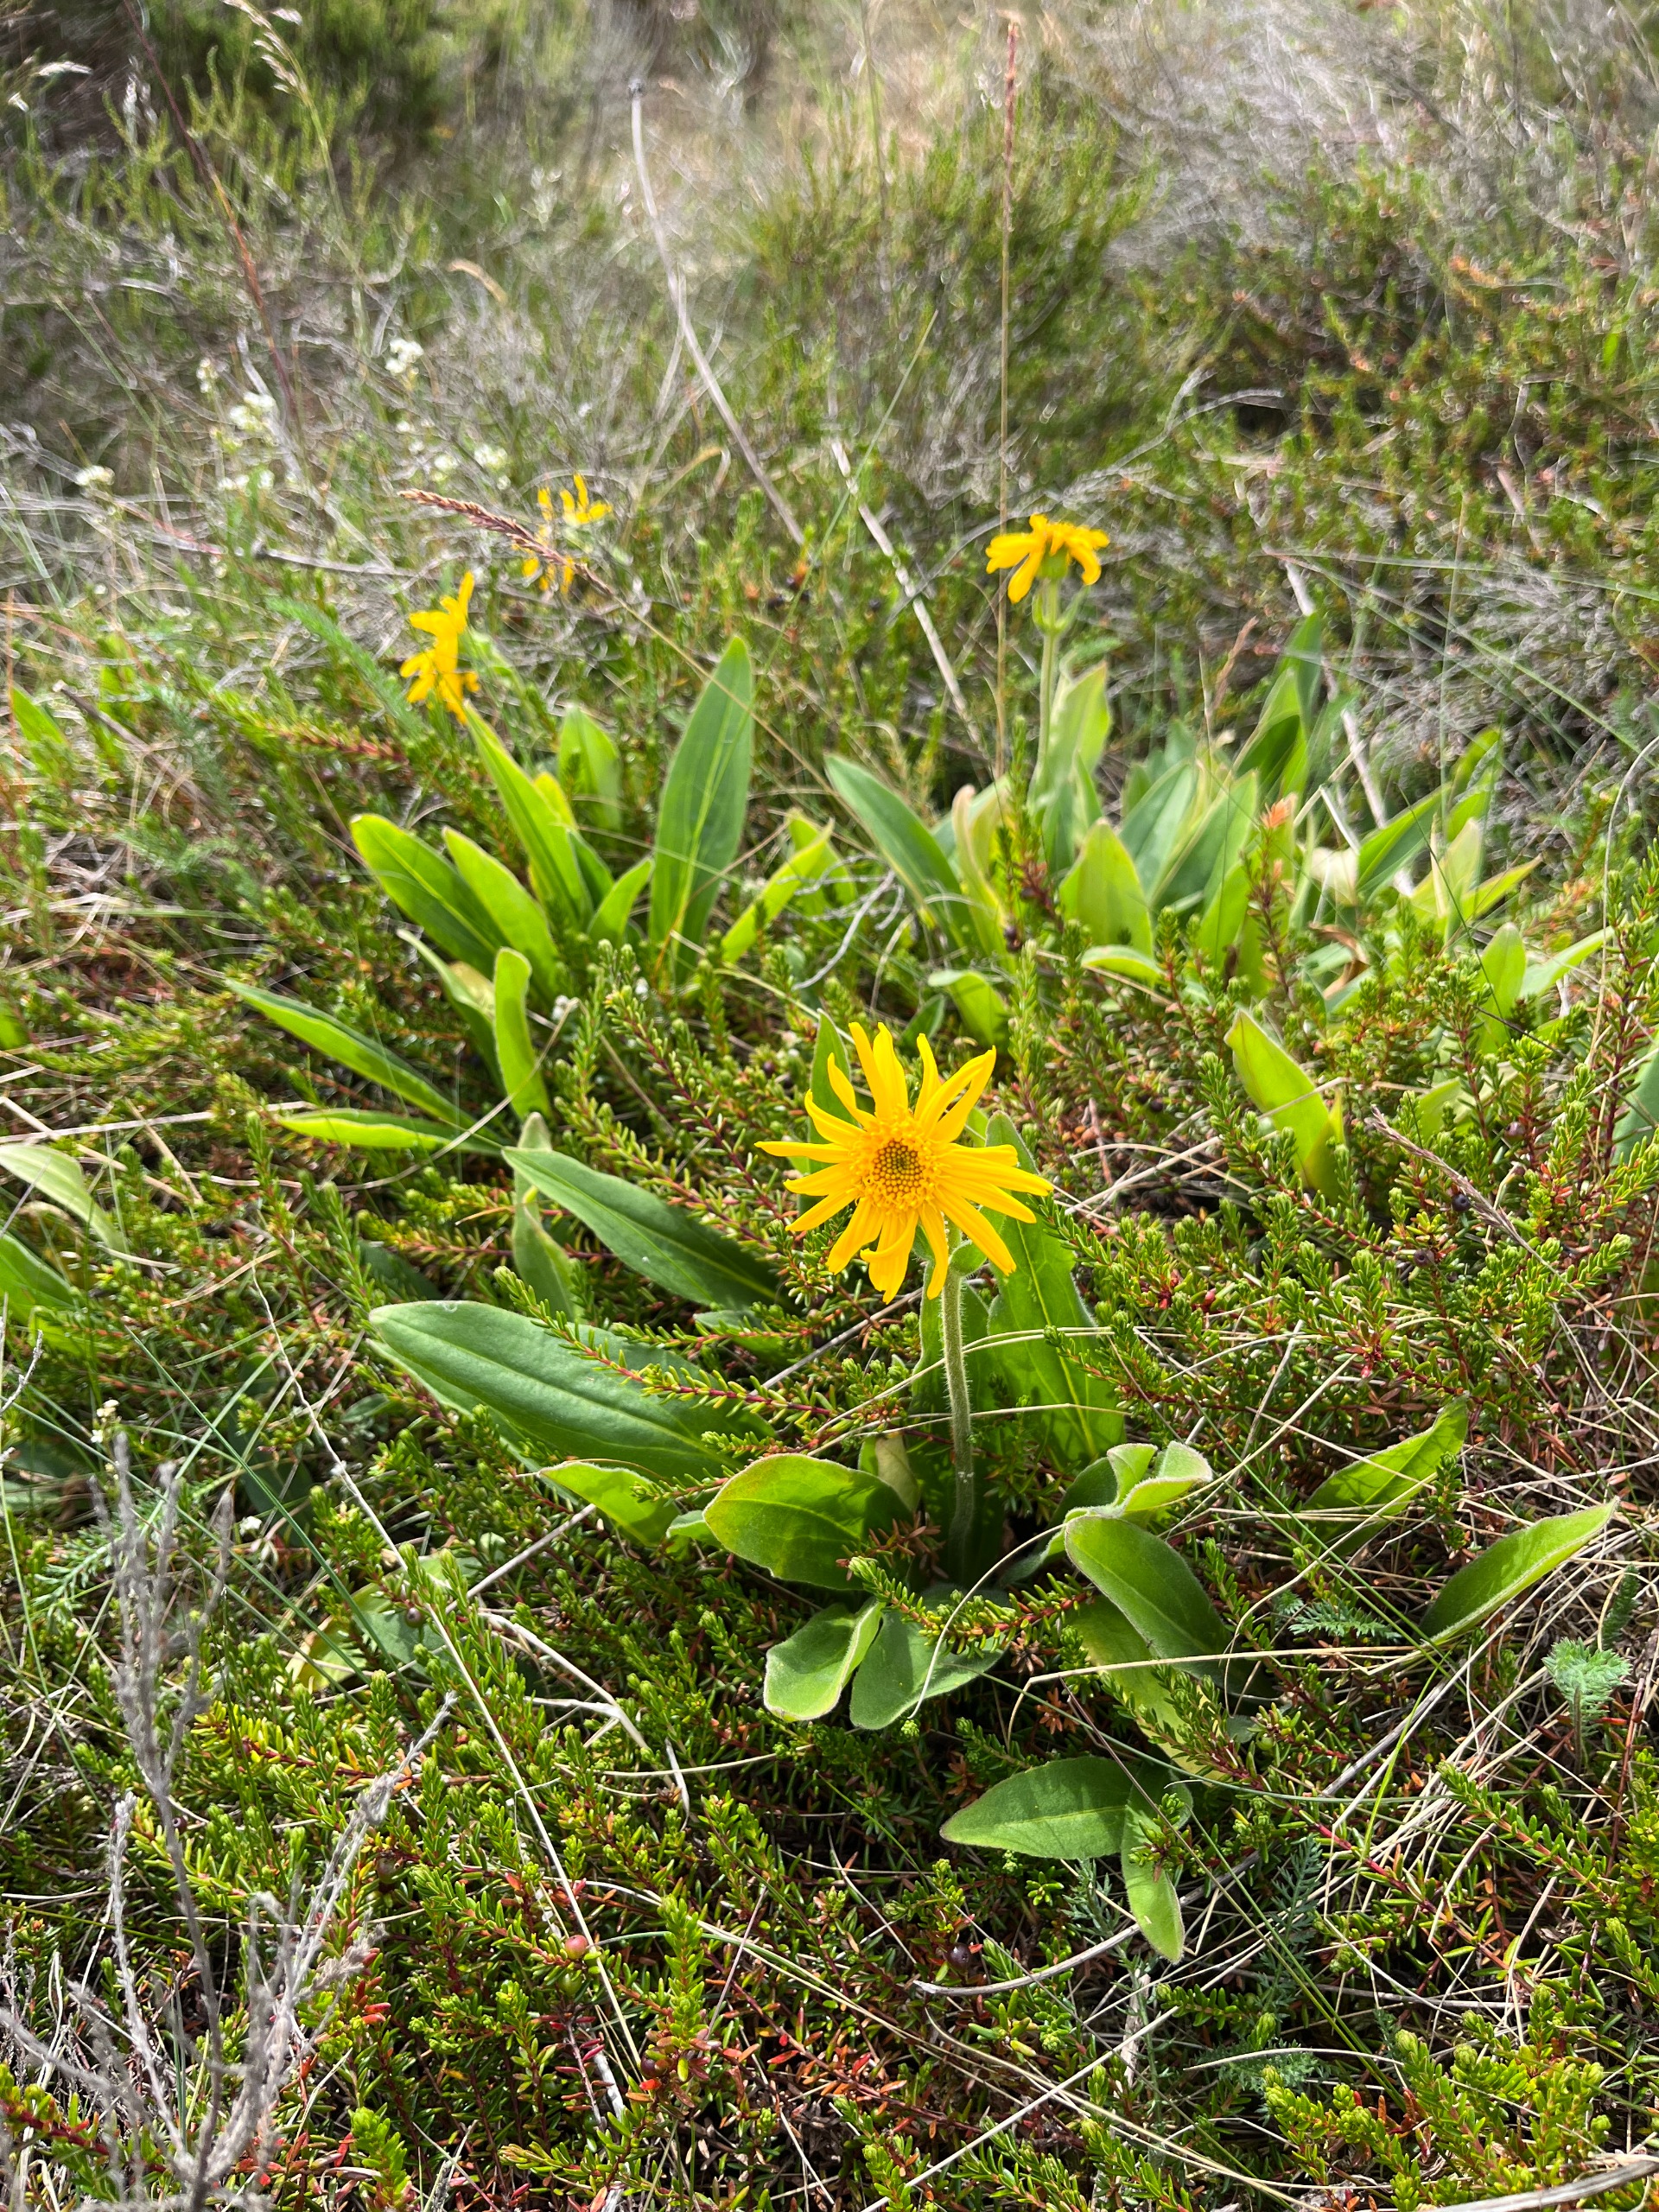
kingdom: Plantae
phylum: Tracheophyta
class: Magnoliopsida
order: Asterales
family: Asteraceae
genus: Arnica
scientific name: Arnica montana
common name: Guldblomme
